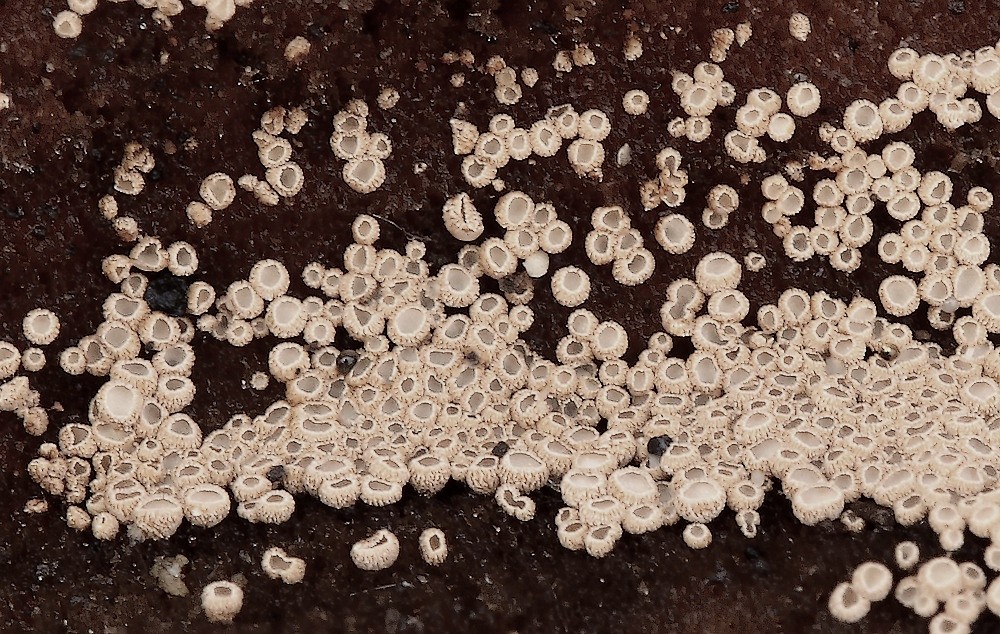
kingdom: Fungi
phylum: Basidiomycota
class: Agaricomycetes
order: Agaricales
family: Niaceae
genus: Merismodes
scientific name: Merismodes anomala
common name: almindelig læderskål
